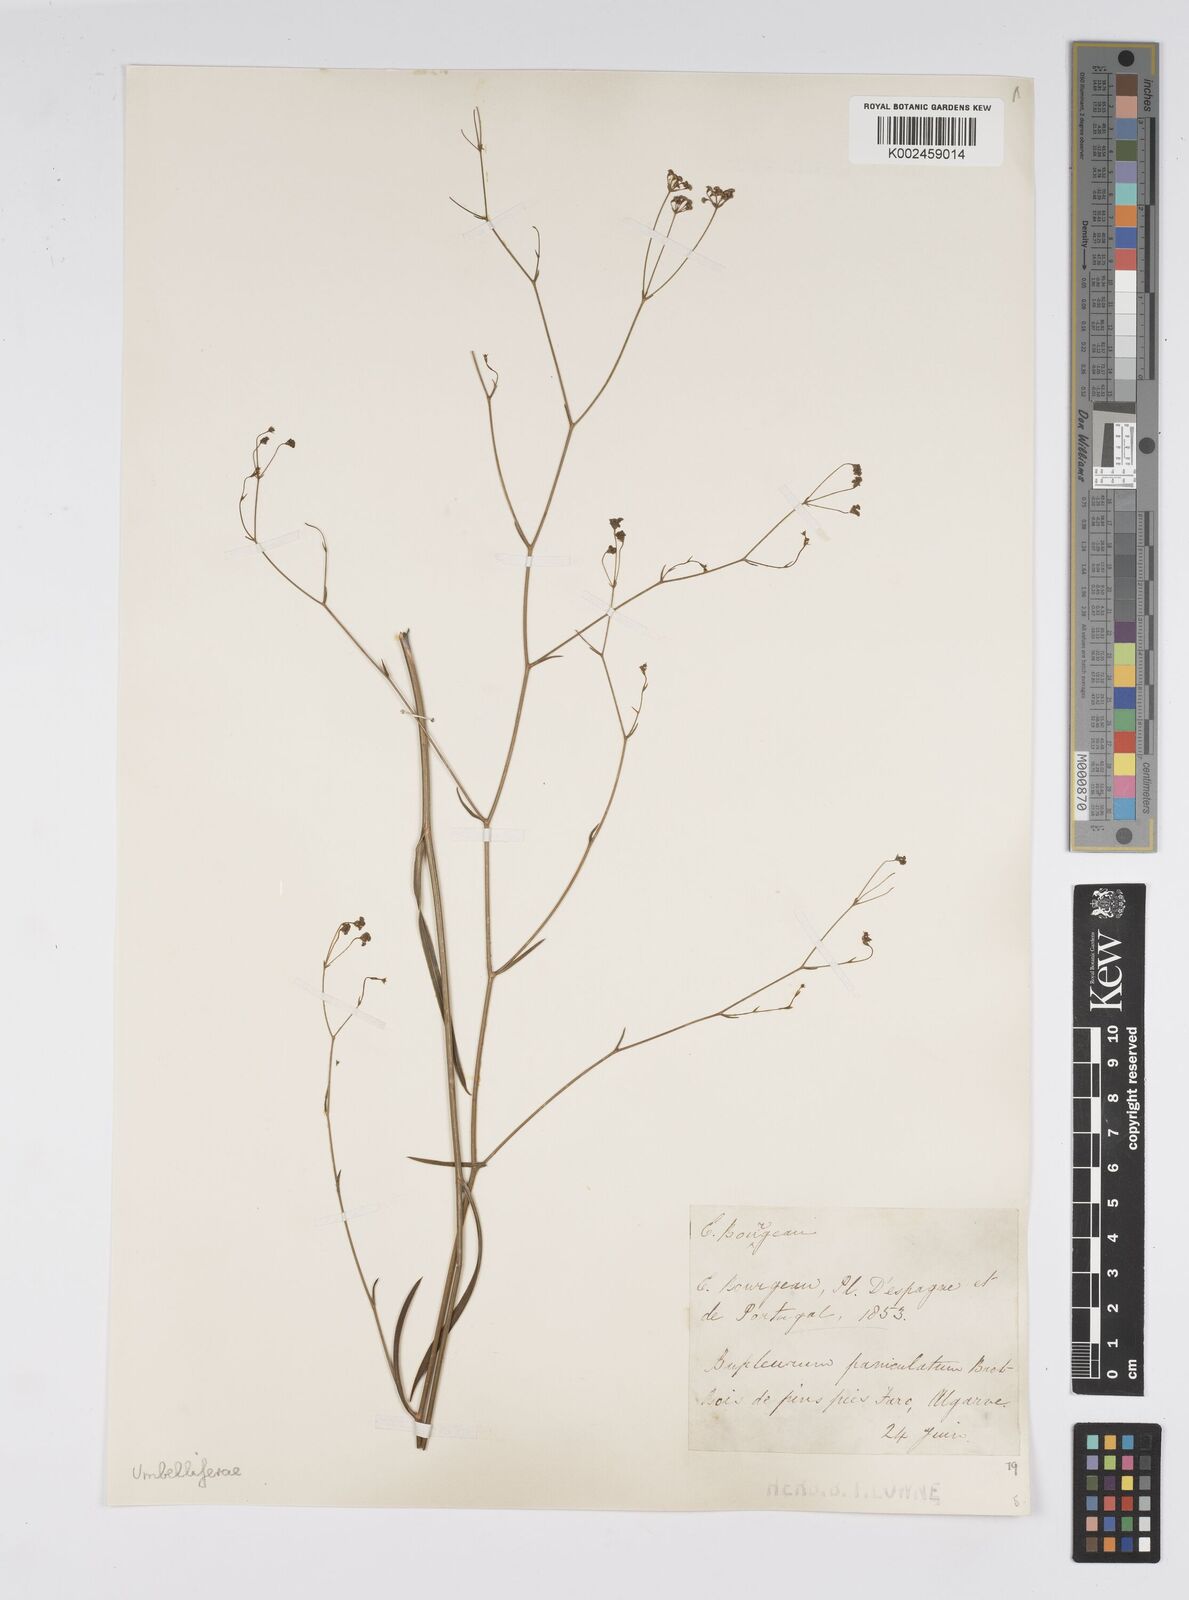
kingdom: Plantae
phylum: Tracheophyta
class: Magnoliopsida
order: Apiales
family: Apiaceae
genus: Bupleurum
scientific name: Bupleurum rigidum
